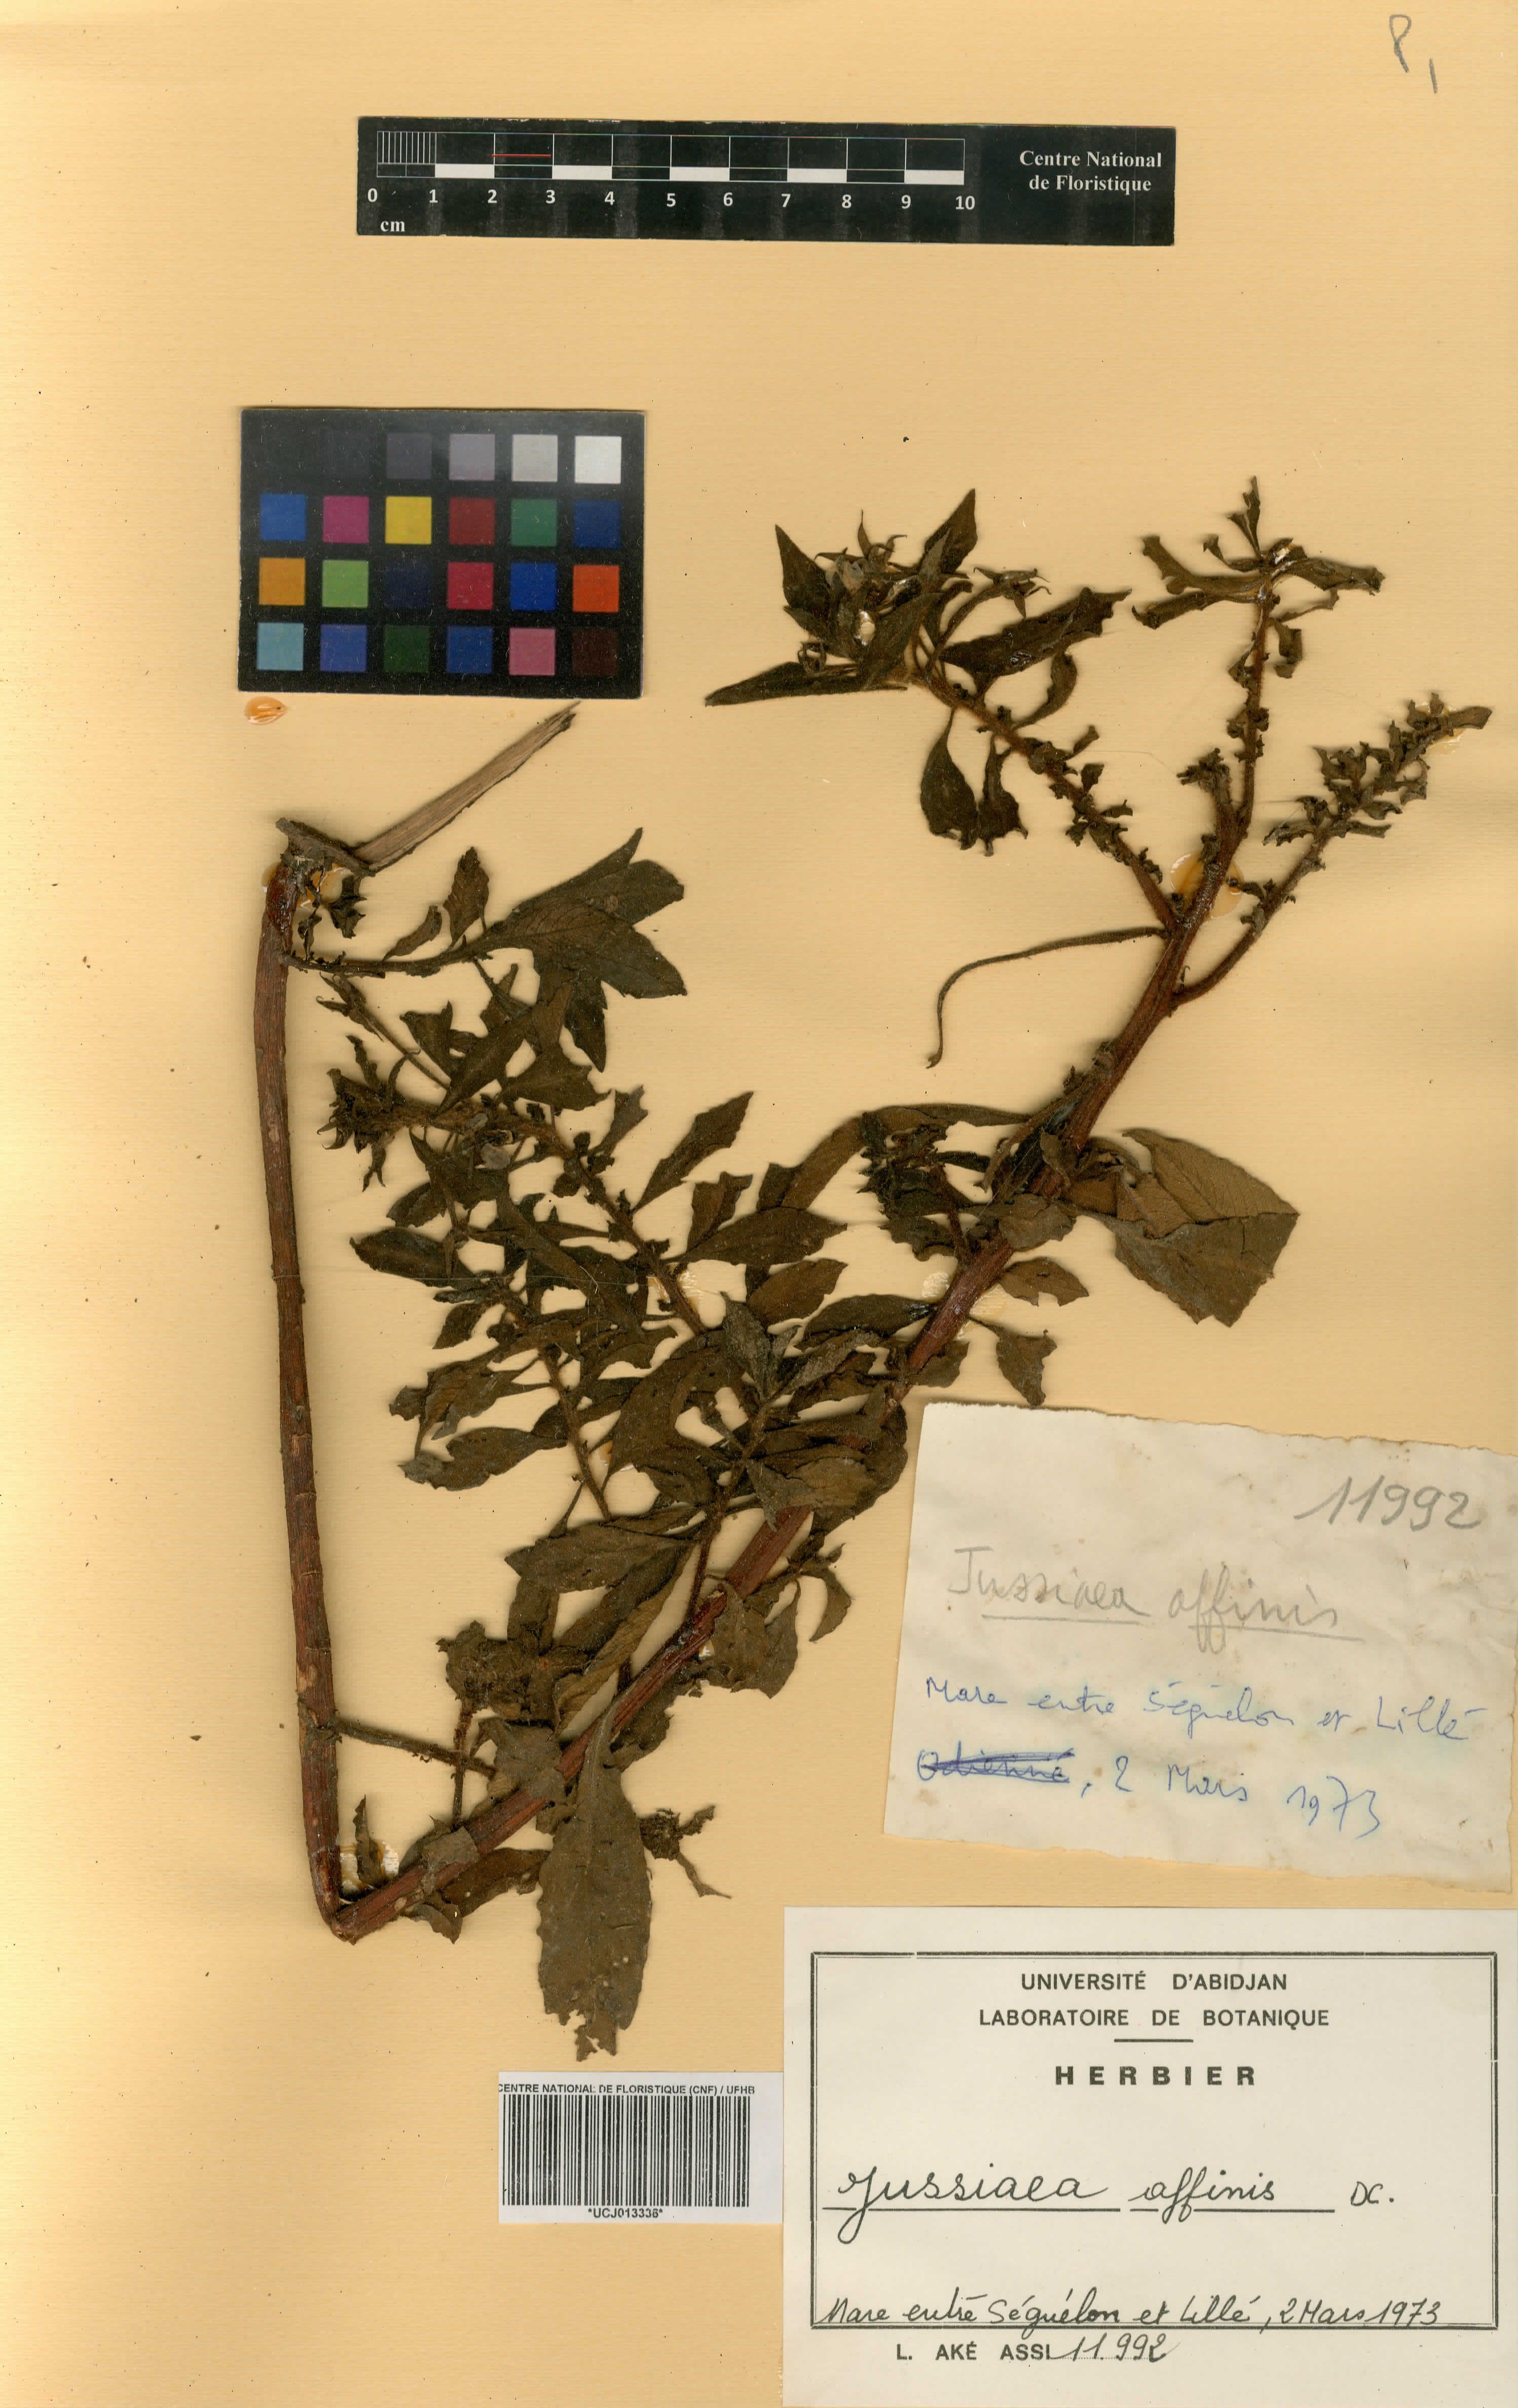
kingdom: Plantae
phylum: Tracheophyta
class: Magnoliopsida
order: Myrtales
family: Onagraceae
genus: Ludwigia
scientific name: Ludwigia affinis
